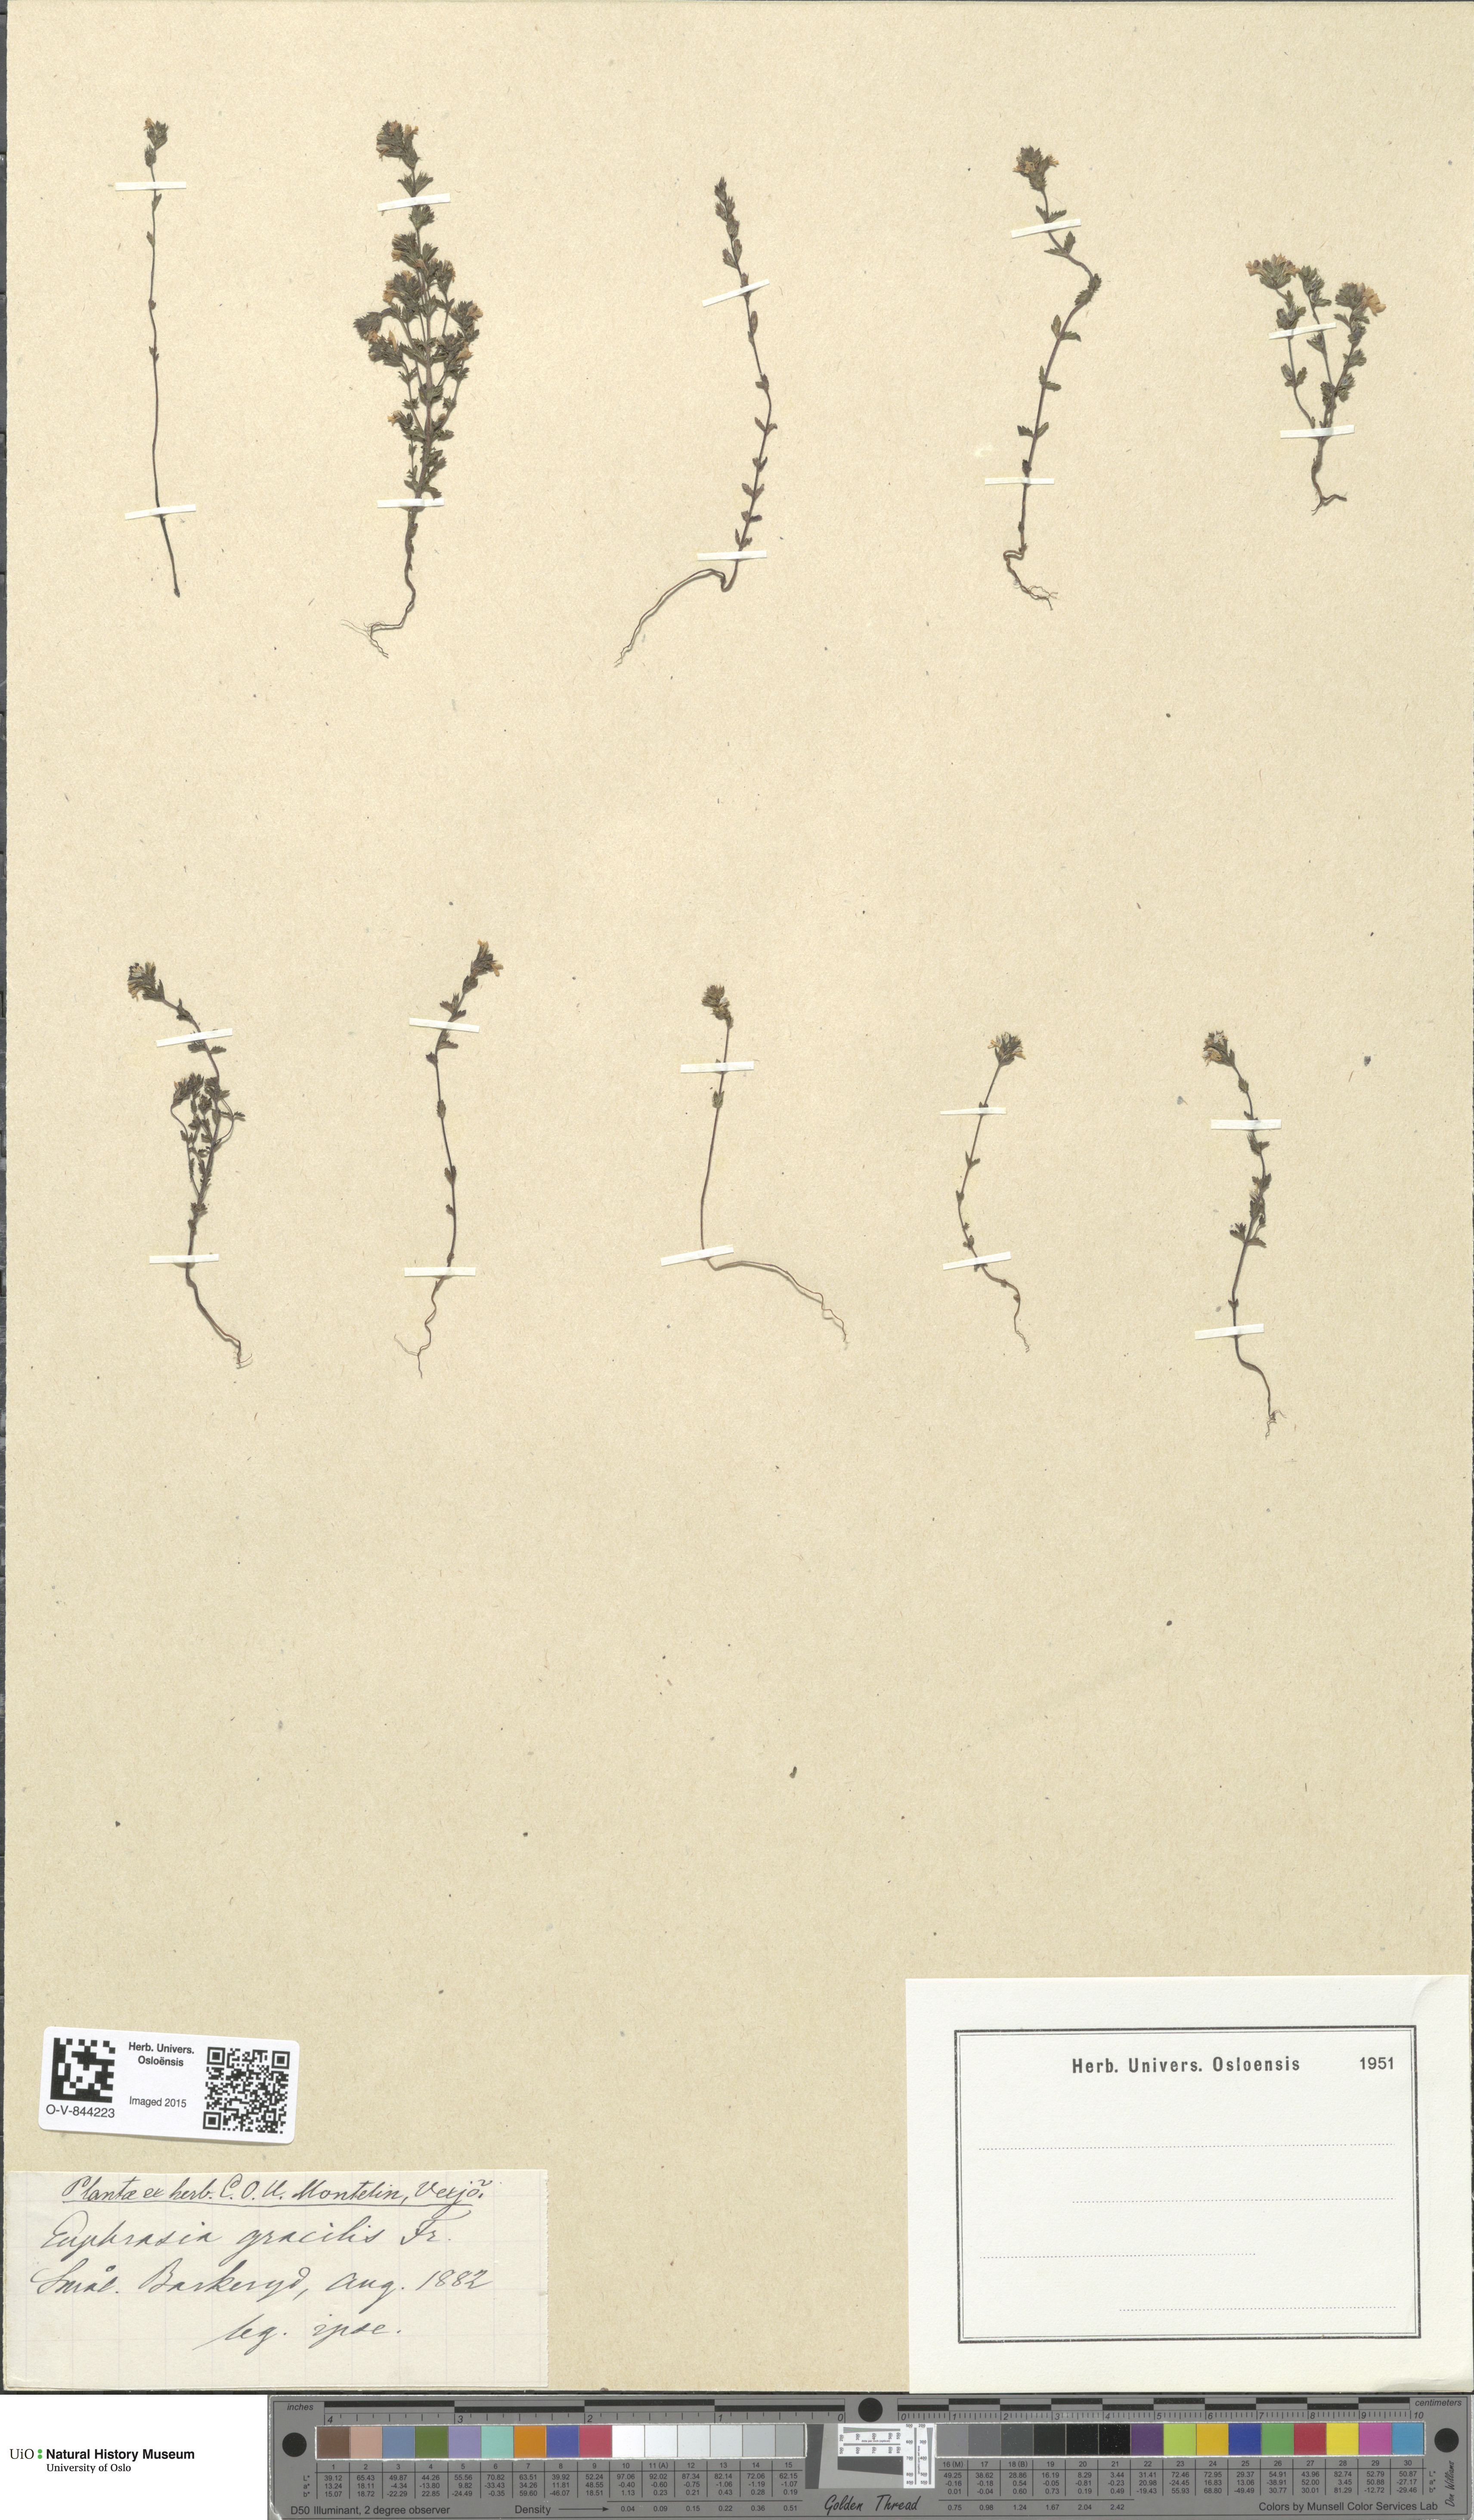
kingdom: Plantae
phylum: Tracheophyta
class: Magnoliopsida
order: Lamiales
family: Orobanchaceae
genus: Euphrasia
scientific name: Euphrasia micrantha
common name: Northern eyebright
